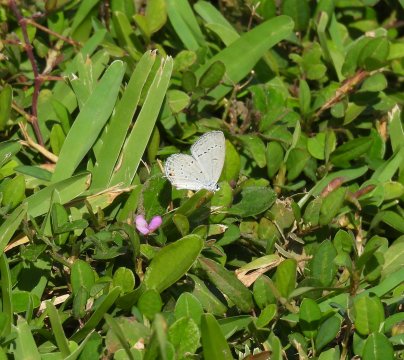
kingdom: Animalia
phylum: Arthropoda
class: Insecta
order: Lepidoptera
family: Lycaenidae
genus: Elkalyce
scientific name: Elkalyce comyntas
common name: Eastern Tailed-Blue
